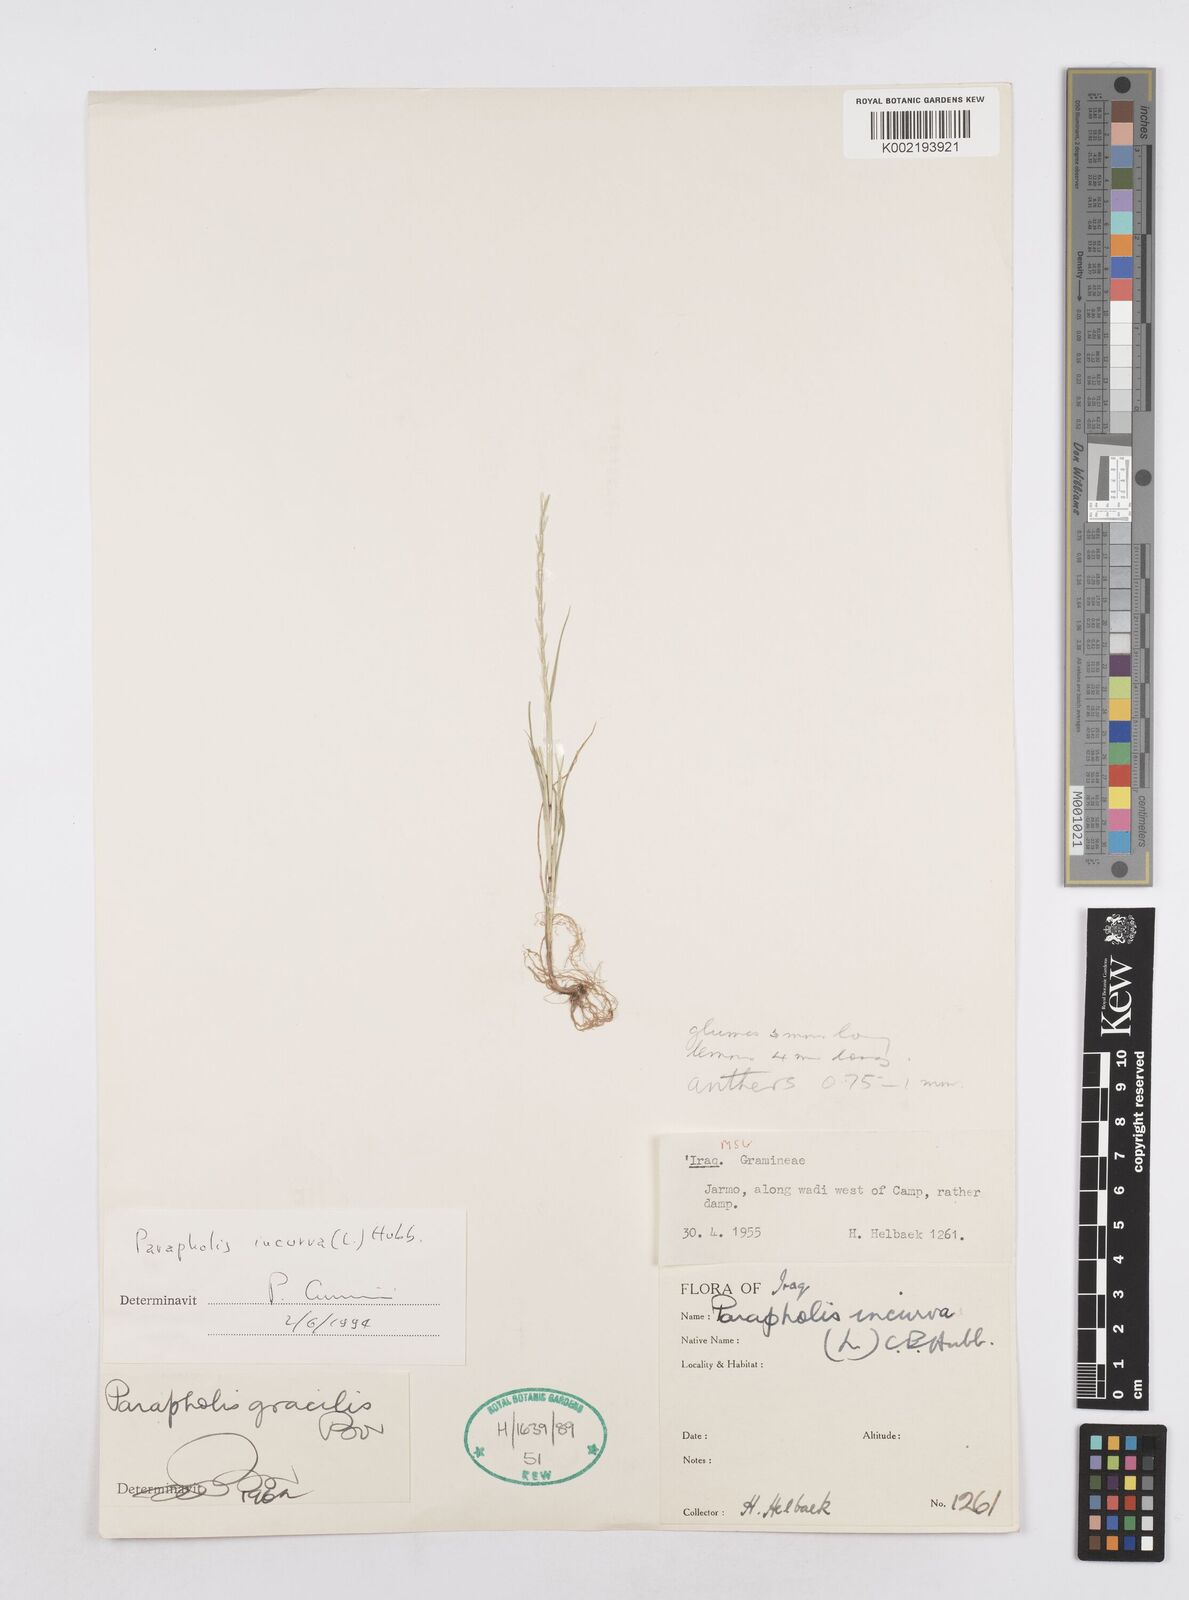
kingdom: Plantae
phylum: Tracheophyta
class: Liliopsida
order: Poales
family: Poaceae
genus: Parapholis
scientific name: Parapholis incurva
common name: Curved sicklegrass
